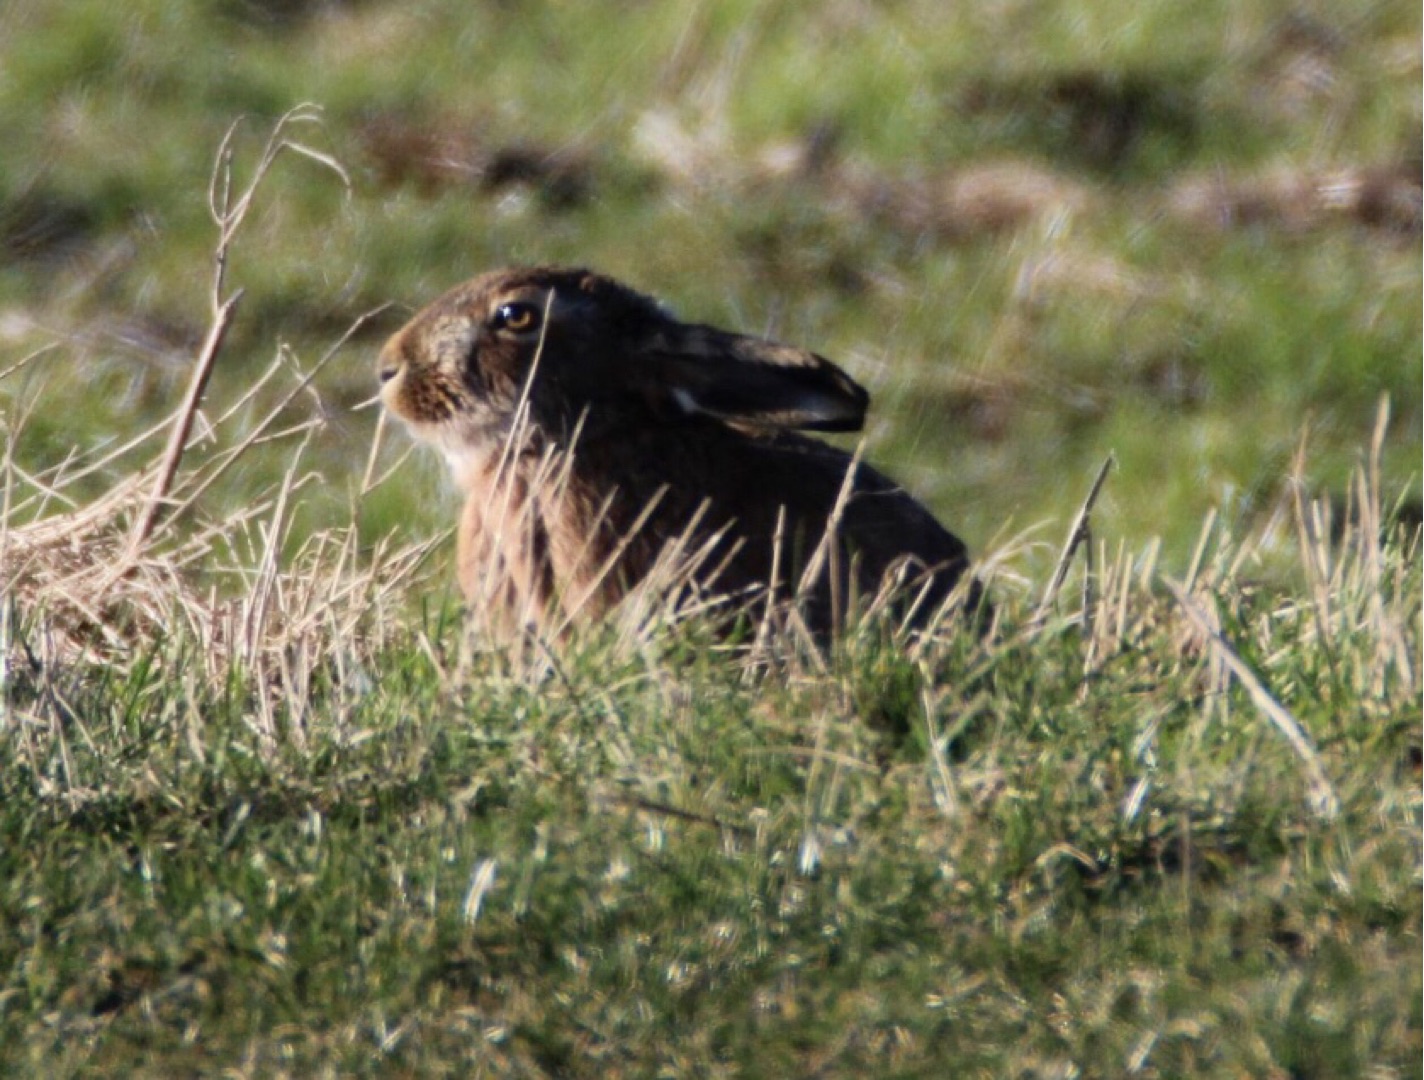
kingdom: Animalia
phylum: Chordata
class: Mammalia
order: Lagomorpha
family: Leporidae
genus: Lepus
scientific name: Lepus europaeus
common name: Hare
